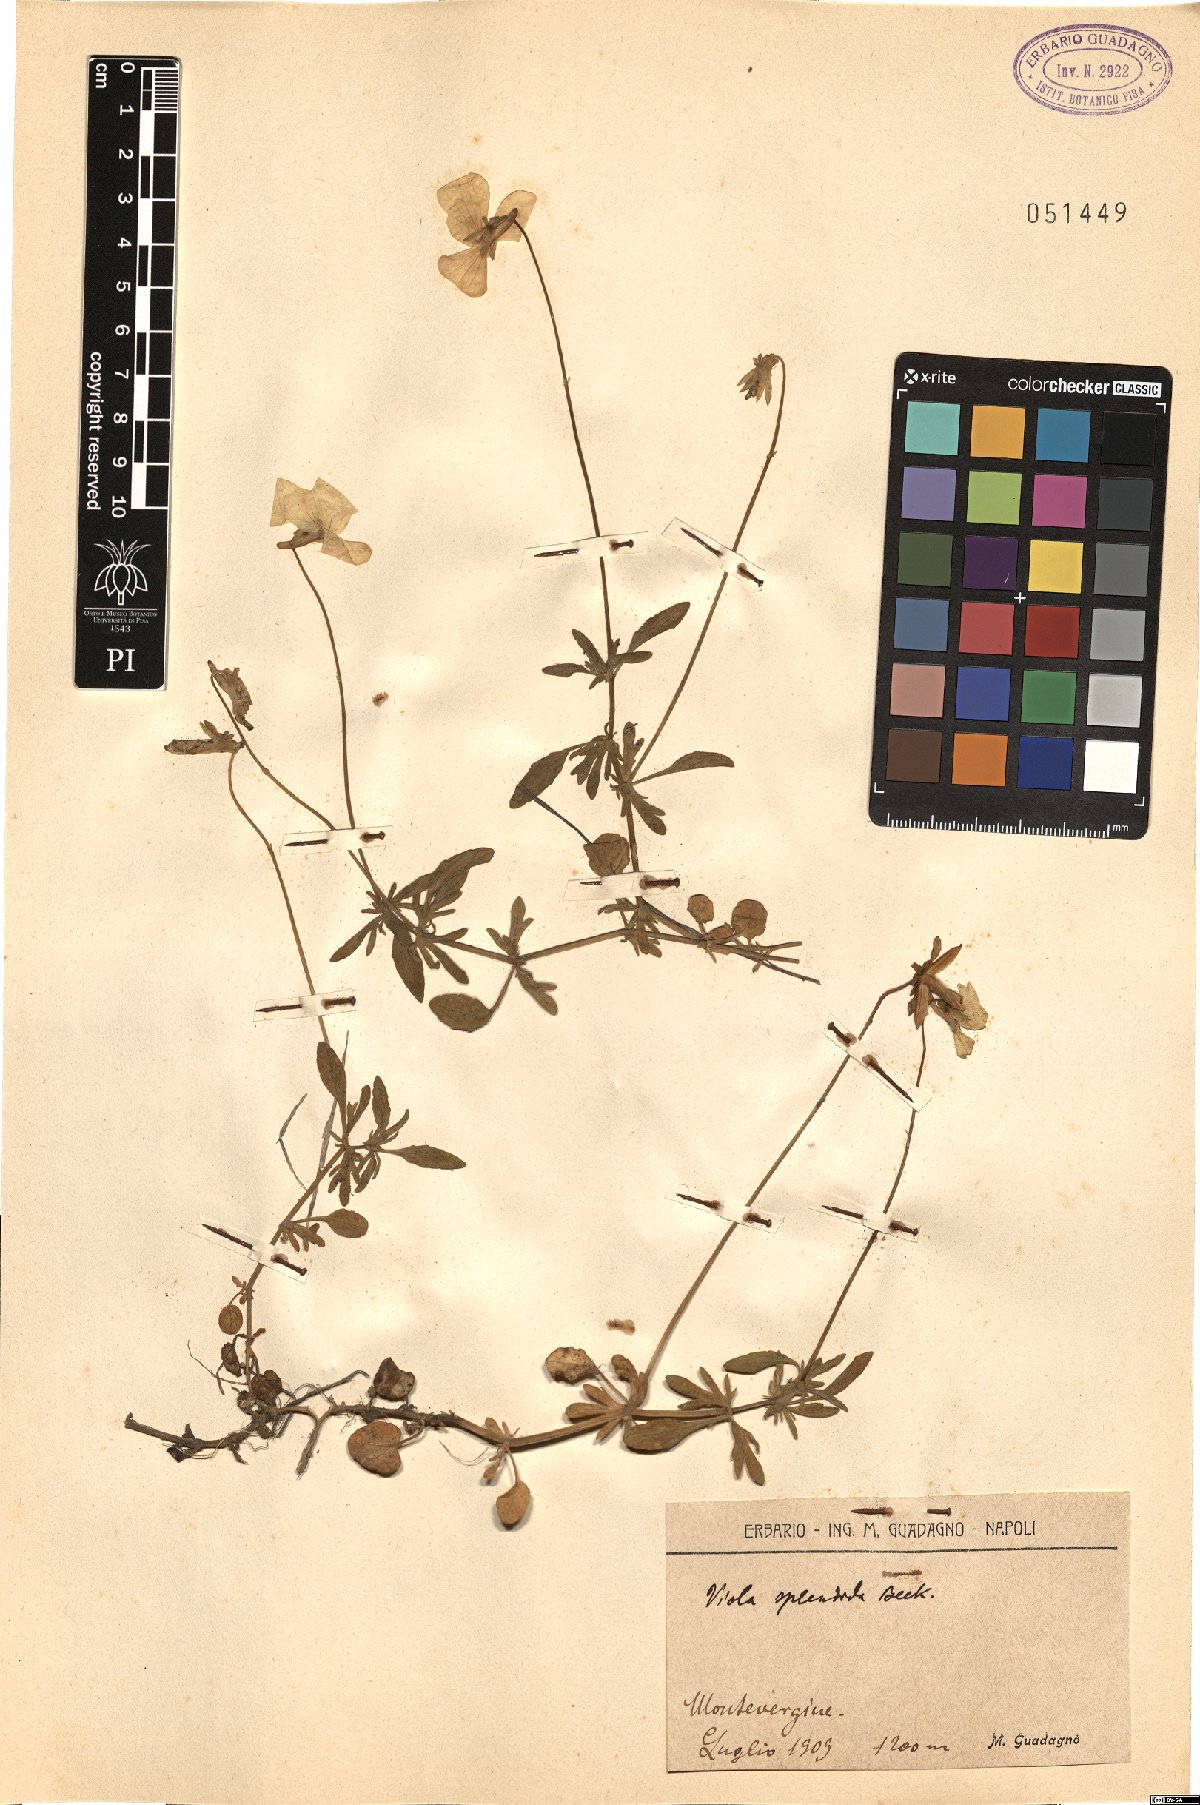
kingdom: Plantae
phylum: Tracheophyta
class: Magnoliopsida
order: Malpighiales
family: Violaceae
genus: Viola
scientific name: Viola aethnensis
